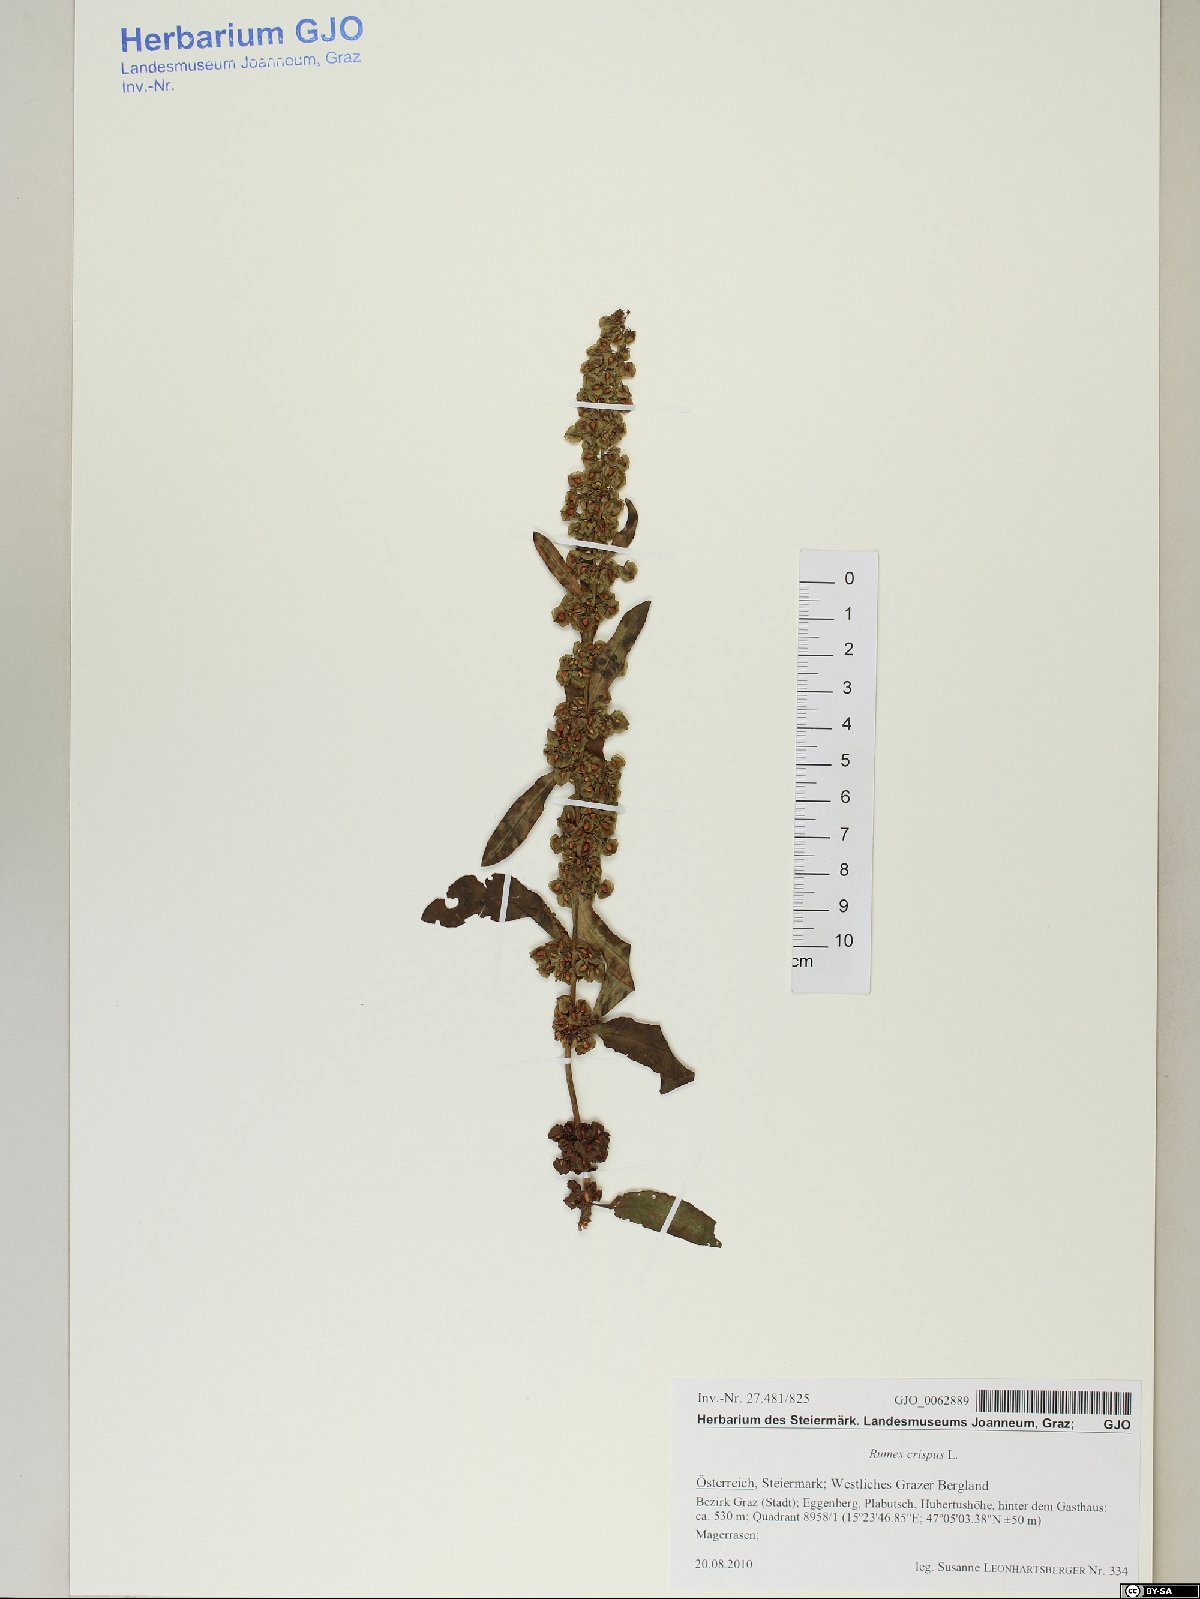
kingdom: Plantae
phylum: Tracheophyta
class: Magnoliopsida
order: Caryophyllales
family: Polygonaceae
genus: Rumex
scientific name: Rumex crispus
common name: Curled dock
